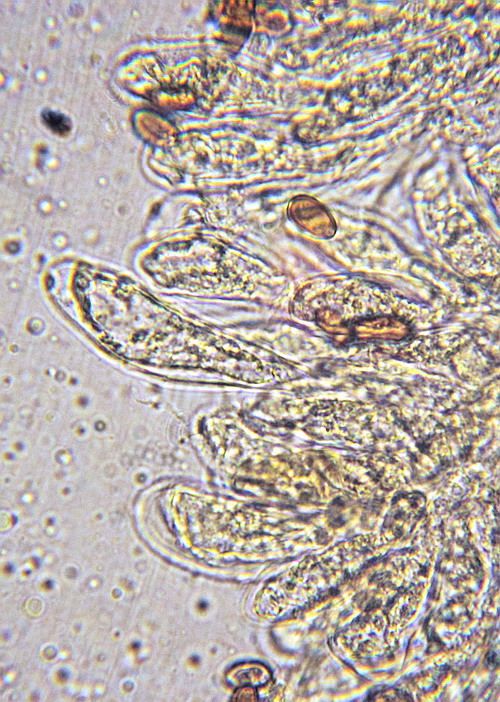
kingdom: Fungi
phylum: Basidiomycota
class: Agaricomycetes
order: Agaricales
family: Inocybaceae
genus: Pseudosperma
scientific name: Pseudosperma
